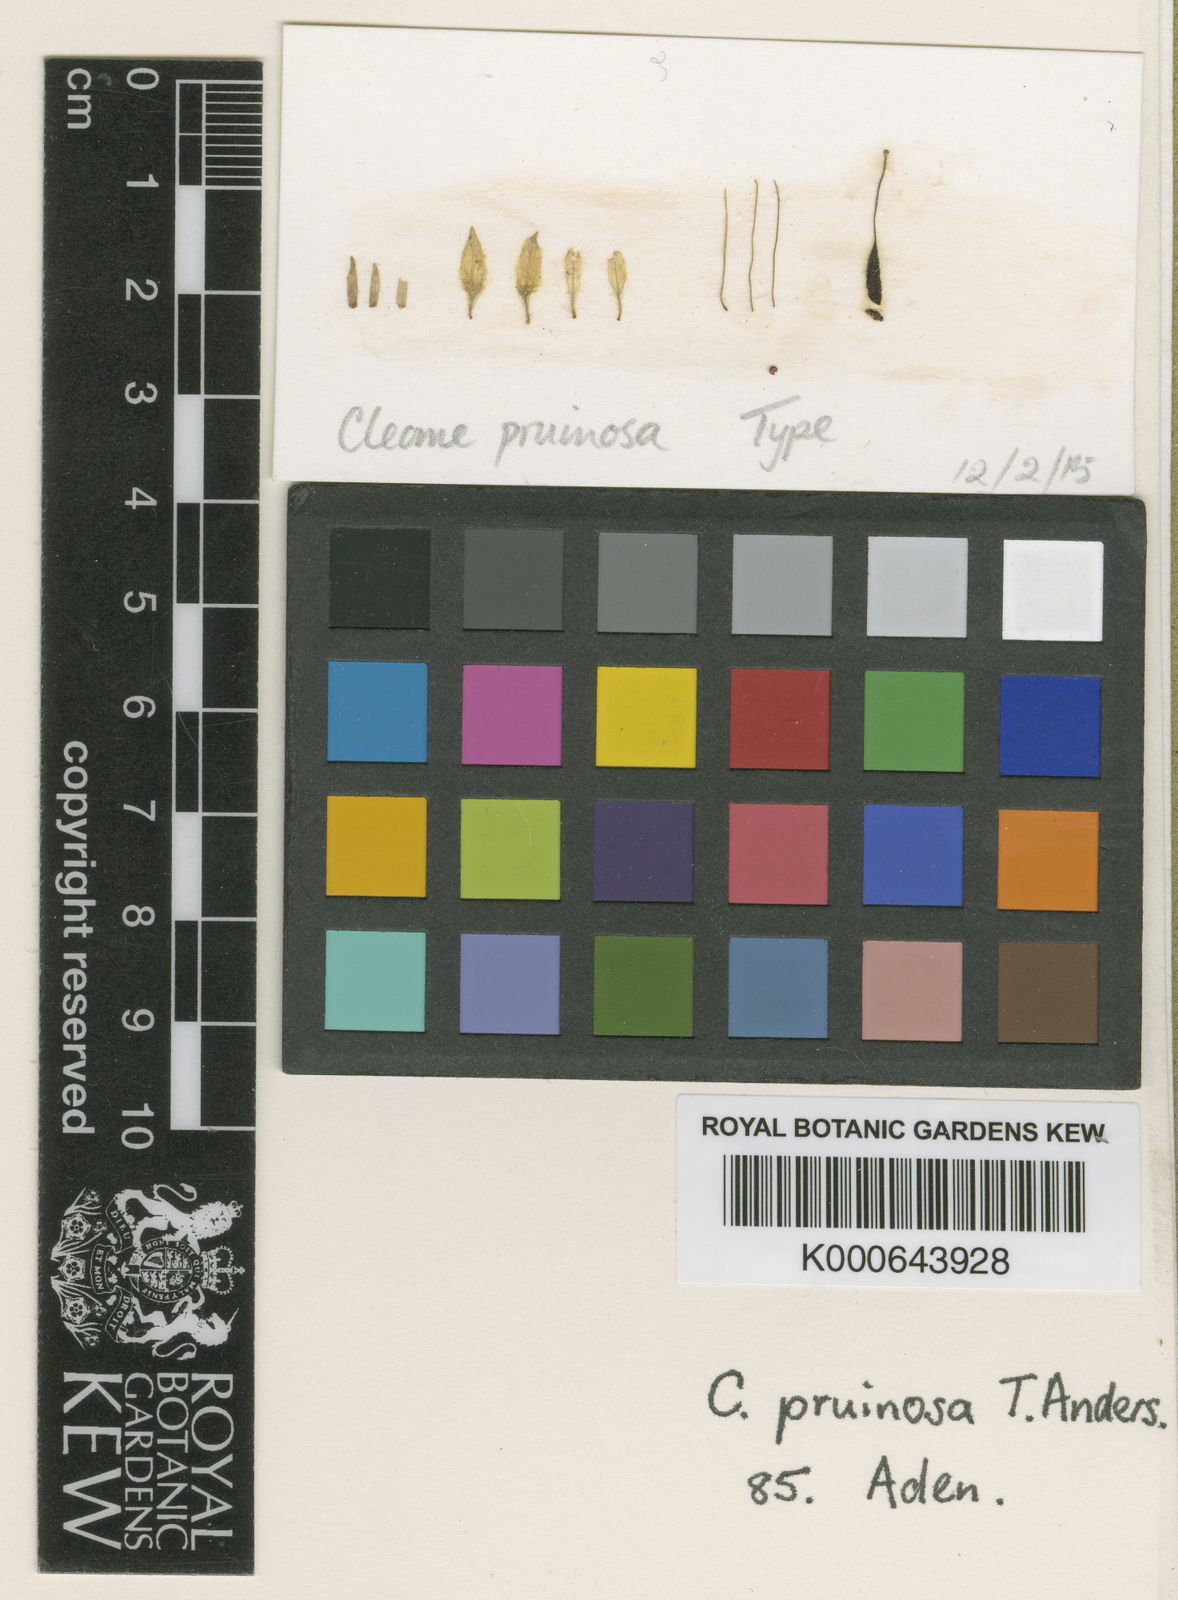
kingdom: Plantae
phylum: Tracheophyta
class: Magnoliopsida
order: Brassicales
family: Cleomaceae
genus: Rorida
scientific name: Rorida droserifolia
